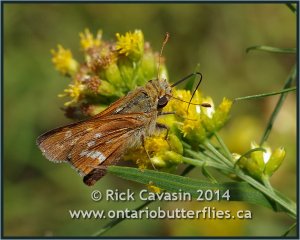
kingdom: Animalia
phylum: Arthropoda
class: Insecta
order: Lepidoptera
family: Hesperiidae
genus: Hesperia
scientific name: Hesperia leonardus
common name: Leonard's Skipper
